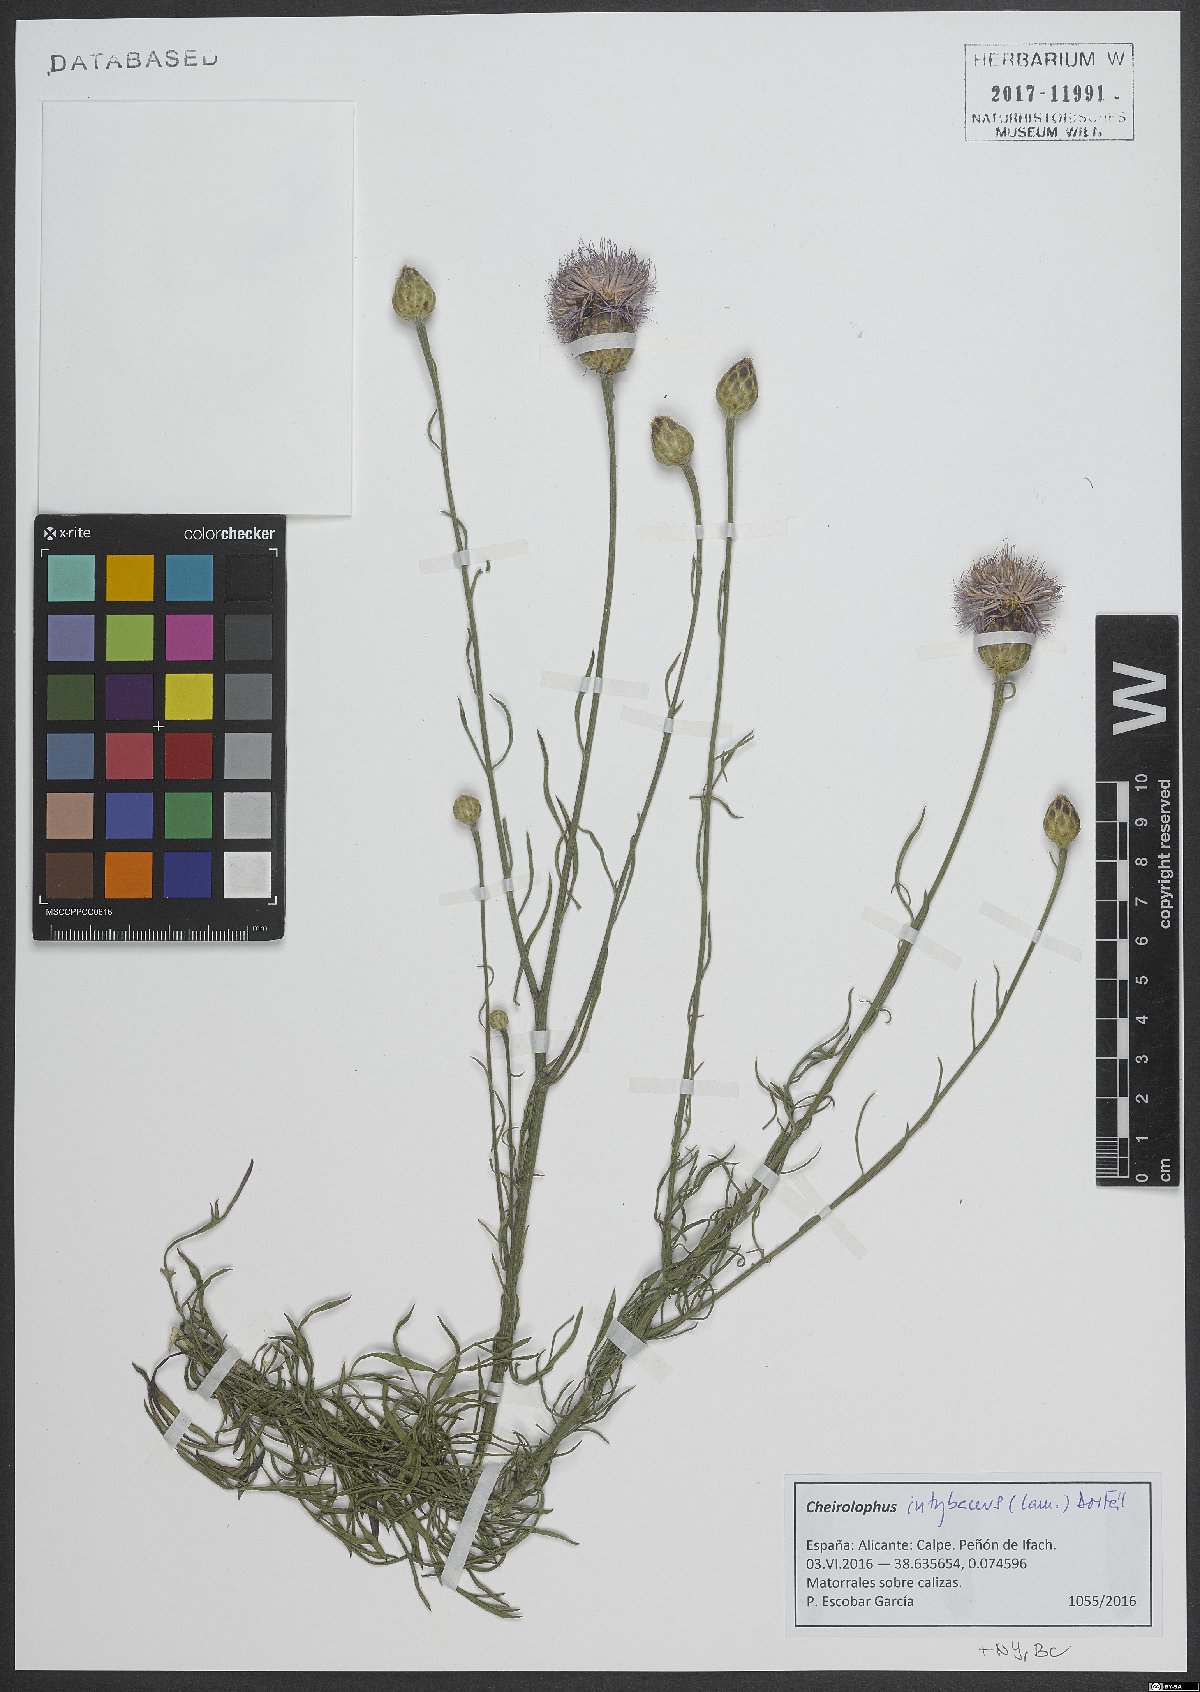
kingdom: Plantae
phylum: Tracheophyta
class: Magnoliopsida
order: Asterales
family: Asteraceae
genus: Cheirolophus
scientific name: Cheirolophus intybaceus
